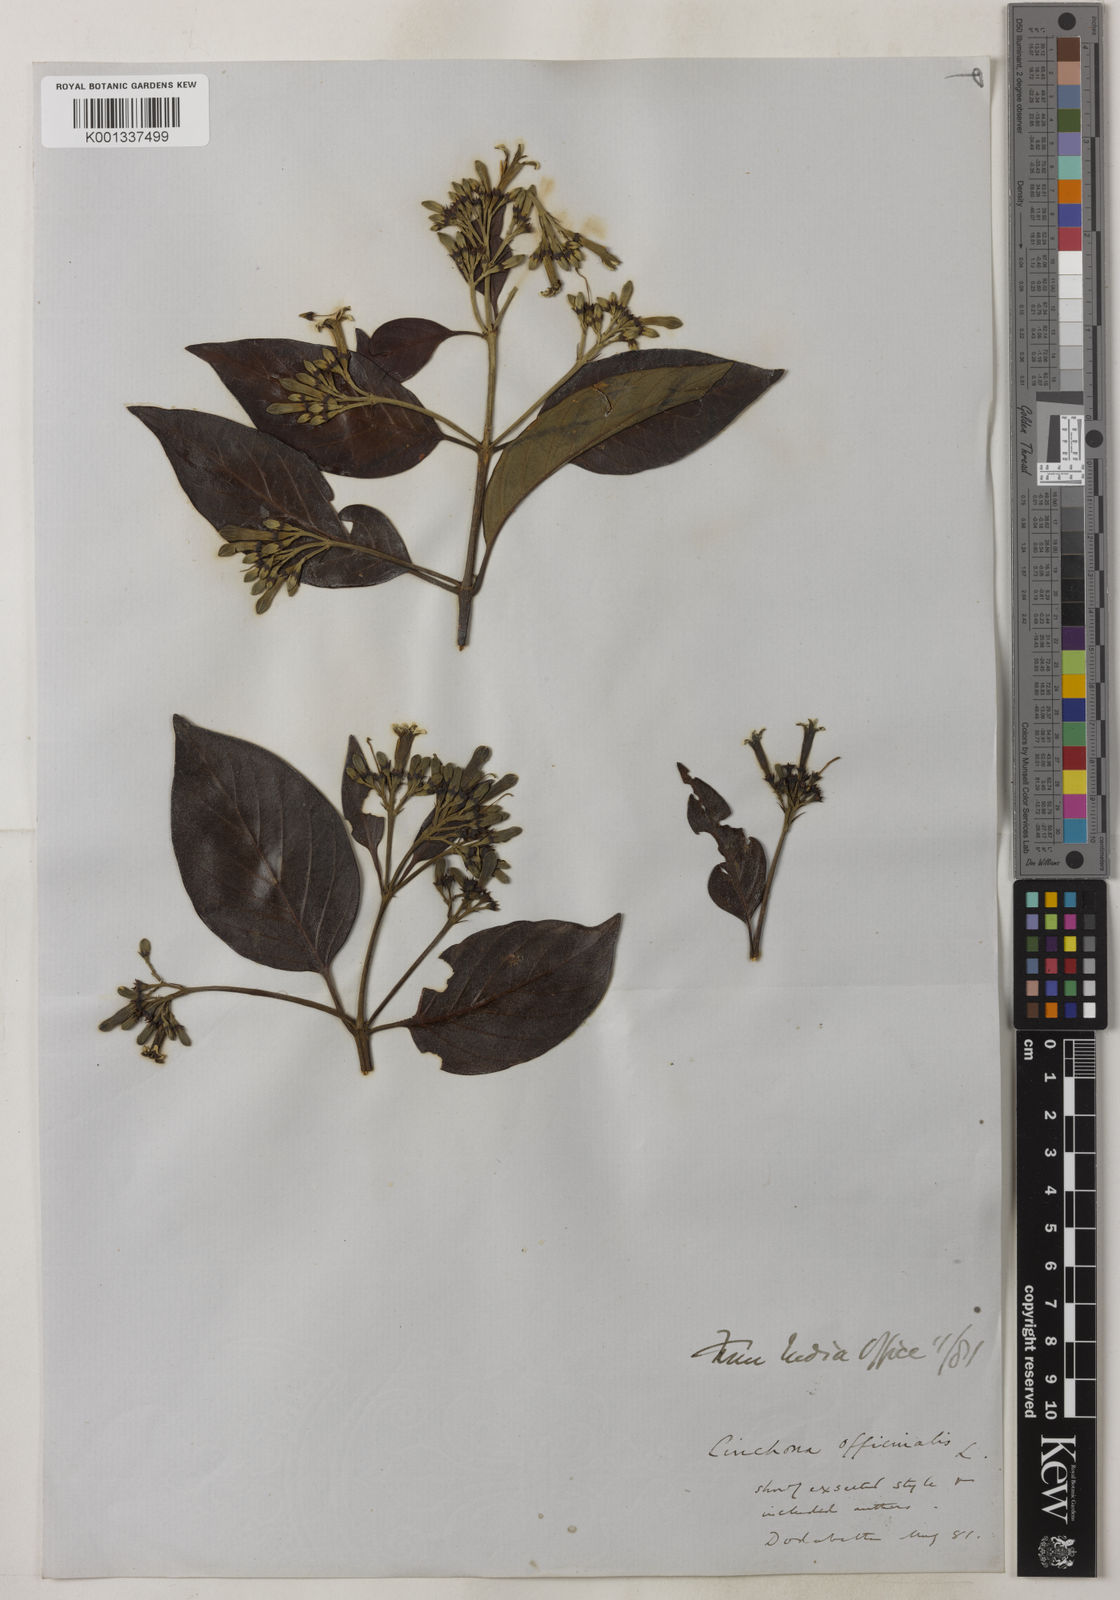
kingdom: Plantae
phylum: Tracheophyta
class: Magnoliopsida
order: Gentianales
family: Rubiaceae
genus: Cinchona
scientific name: Cinchona officinalis
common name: Lojabark
